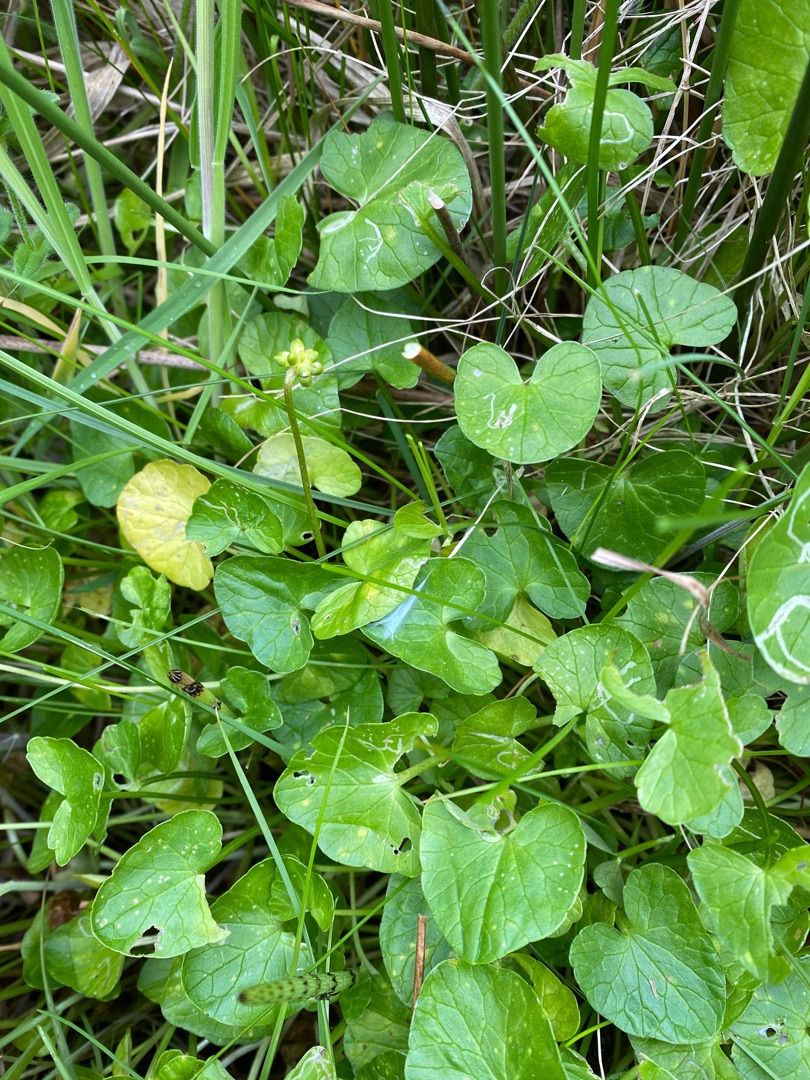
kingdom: Plantae
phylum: Tracheophyta
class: Magnoliopsida
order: Ranunculales
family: Ranunculaceae
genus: Ficaria
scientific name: Ficaria ambigua
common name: Limfjords-vorterod
